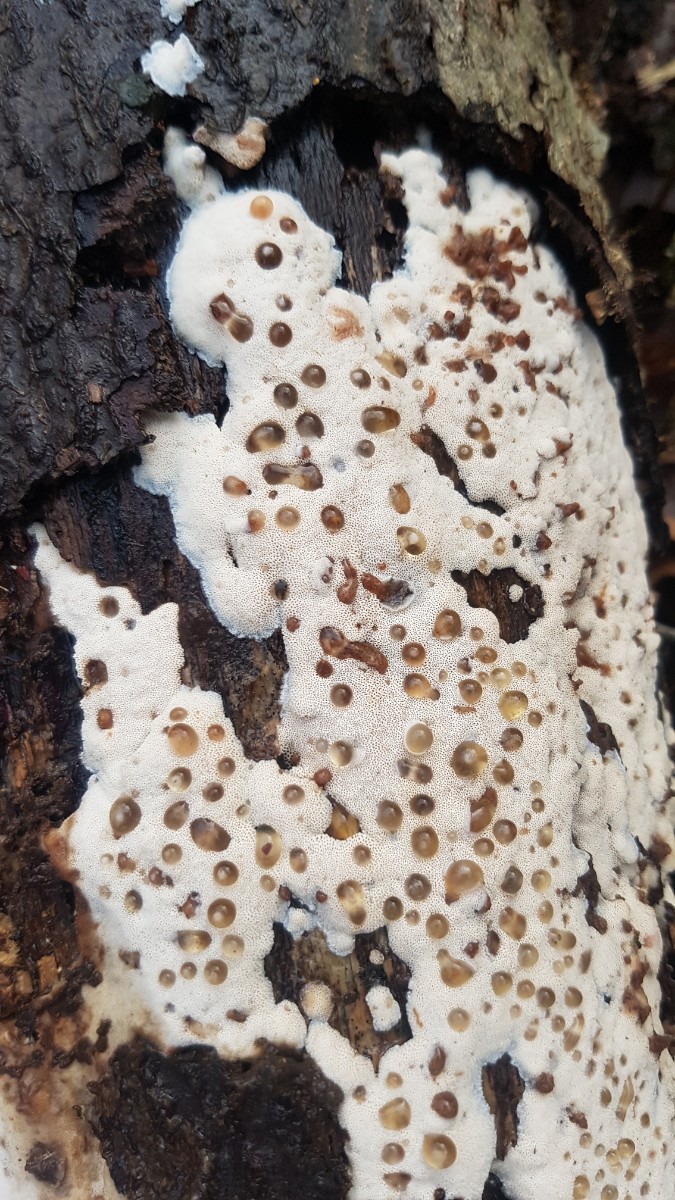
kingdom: Fungi
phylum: Basidiomycota
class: Agaricomycetes
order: Polyporales
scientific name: Polyporales
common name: poresvampordenen
